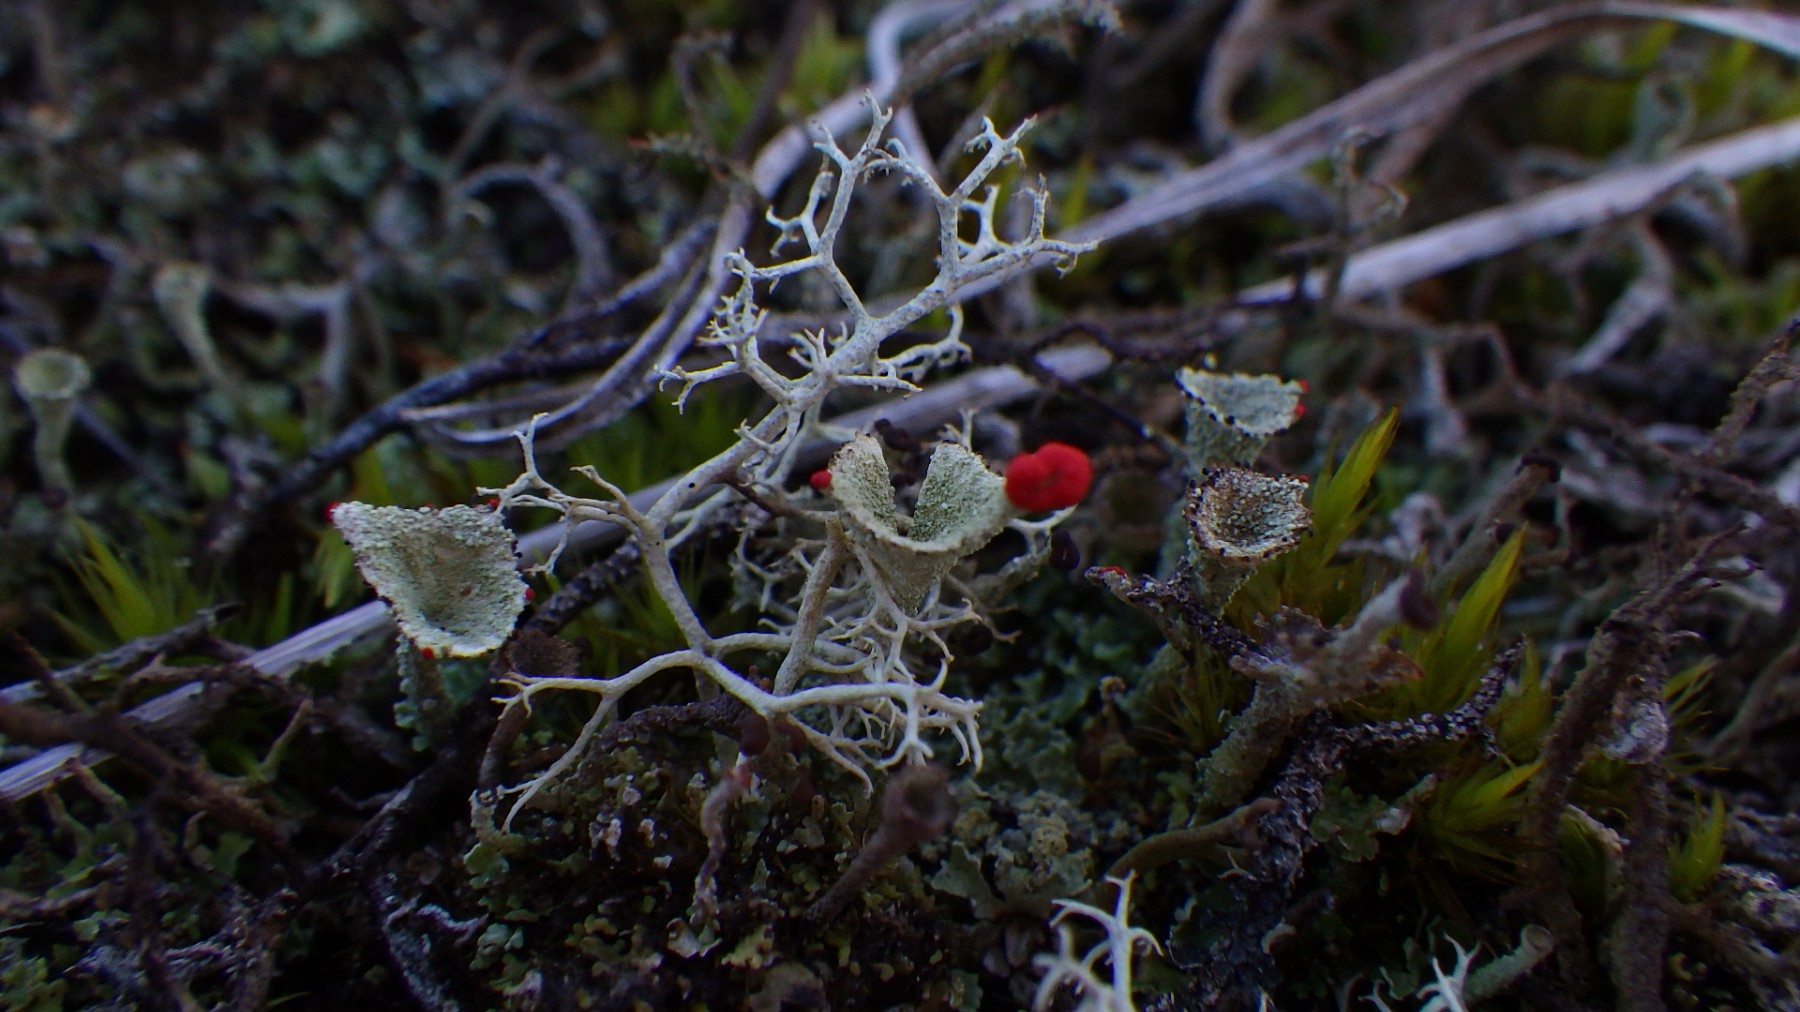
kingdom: Fungi
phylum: Ascomycota
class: Lecanoromycetes
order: Lecanorales
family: Cladoniaceae
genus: Cladonia
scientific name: Cladonia diversa
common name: rød bægerlav
